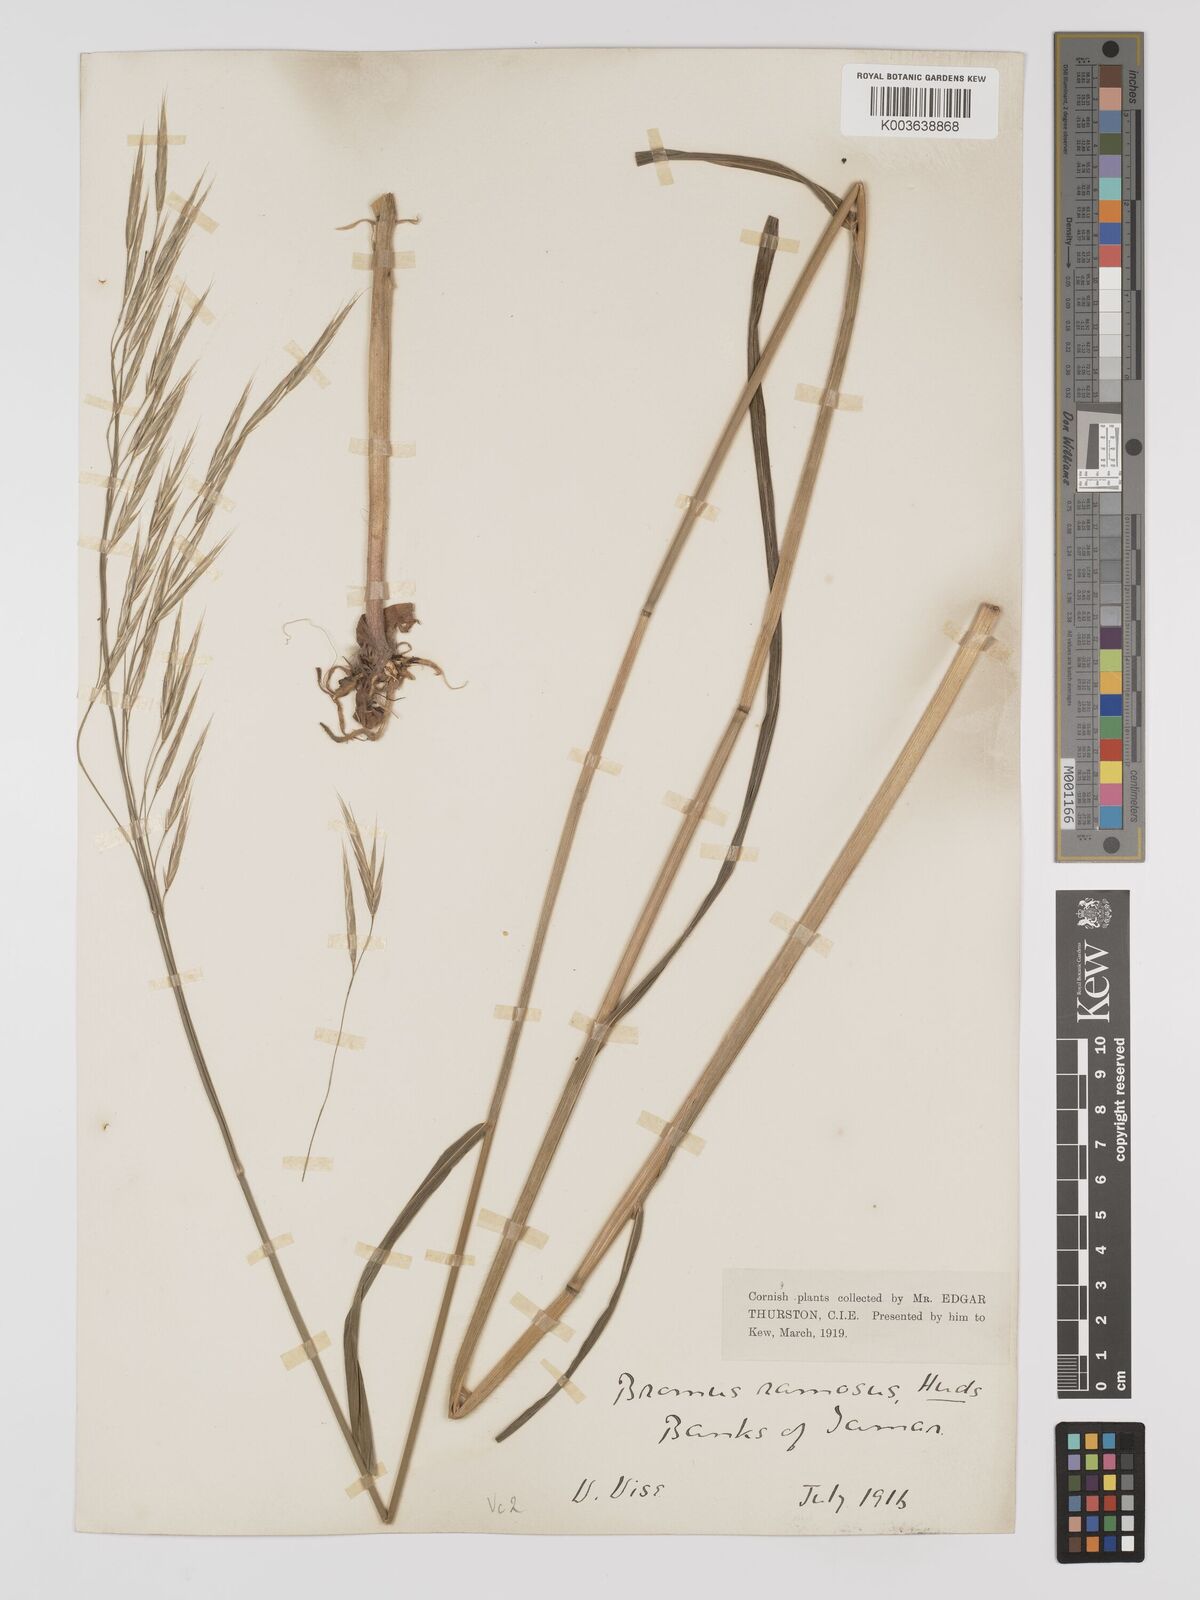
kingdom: Plantae
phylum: Tracheophyta
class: Liliopsida
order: Poales
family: Poaceae
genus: Brachypodium
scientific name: Brachypodium retusum
